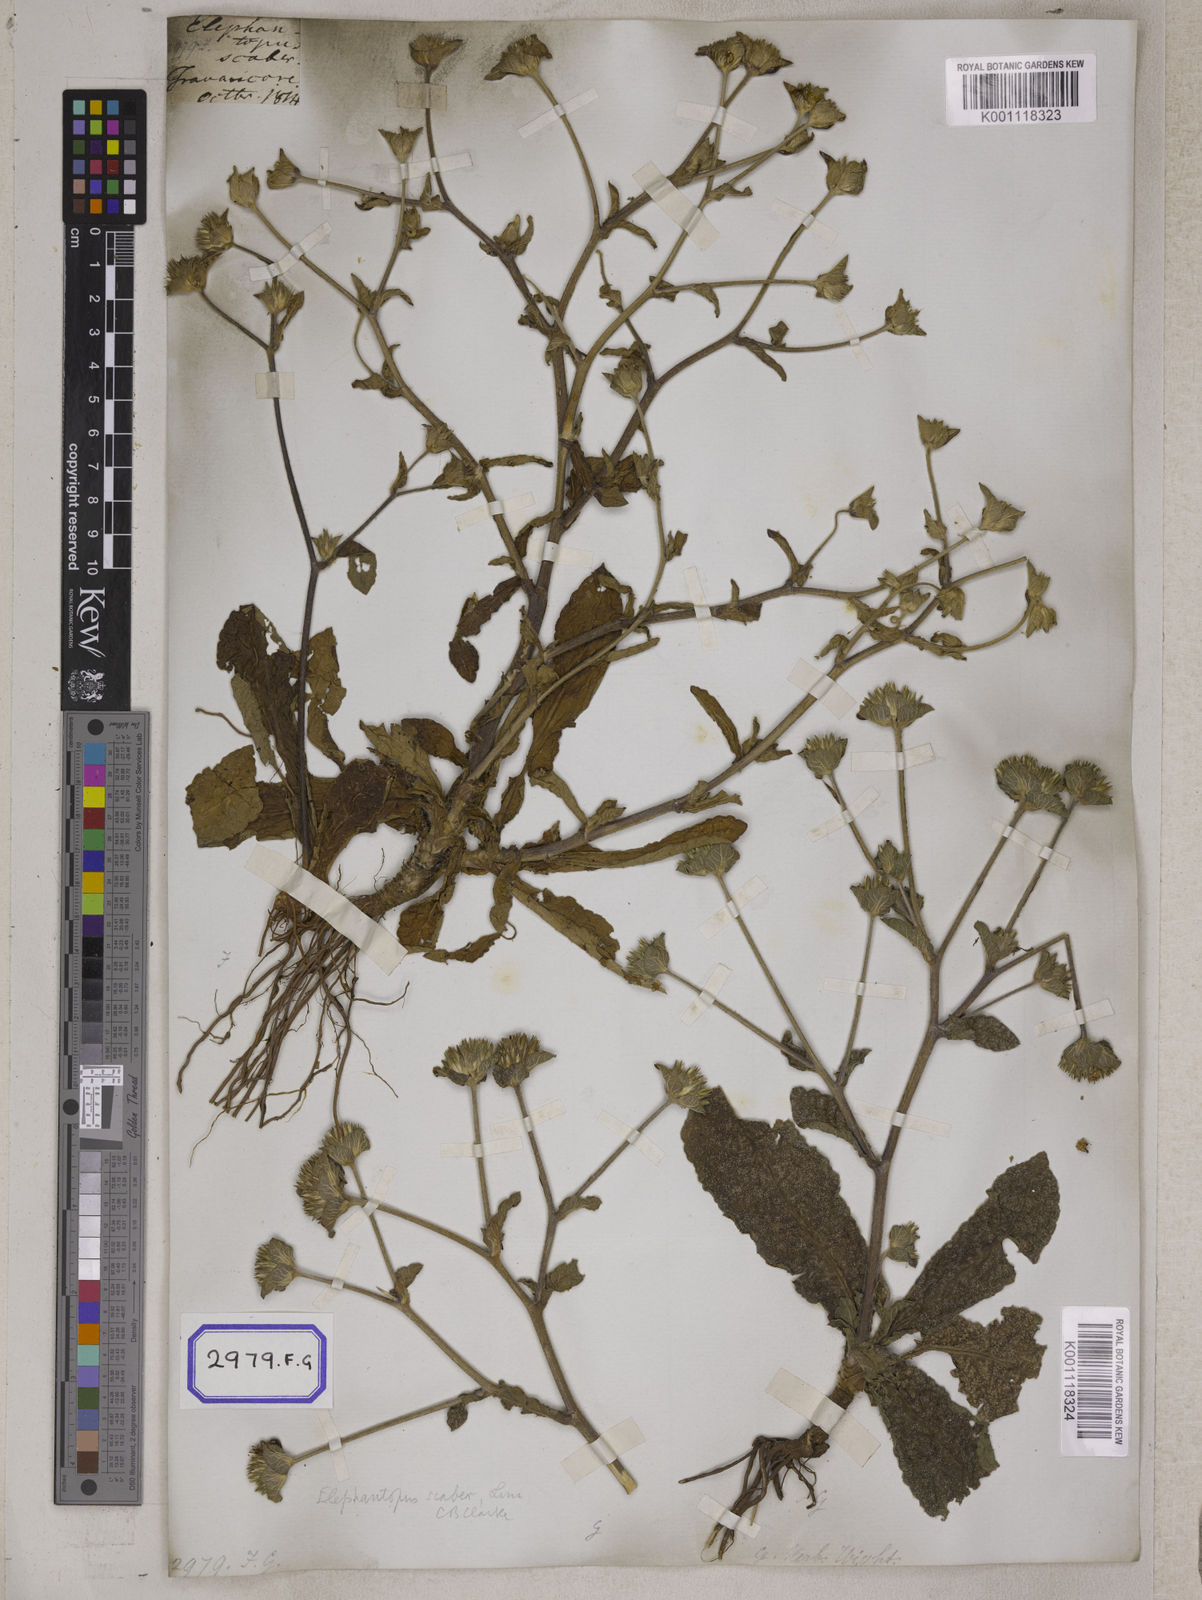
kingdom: Plantae
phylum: Tracheophyta
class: Magnoliopsida
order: Asterales
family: Asteraceae
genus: Elephantopus
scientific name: Elephantopus scaber
